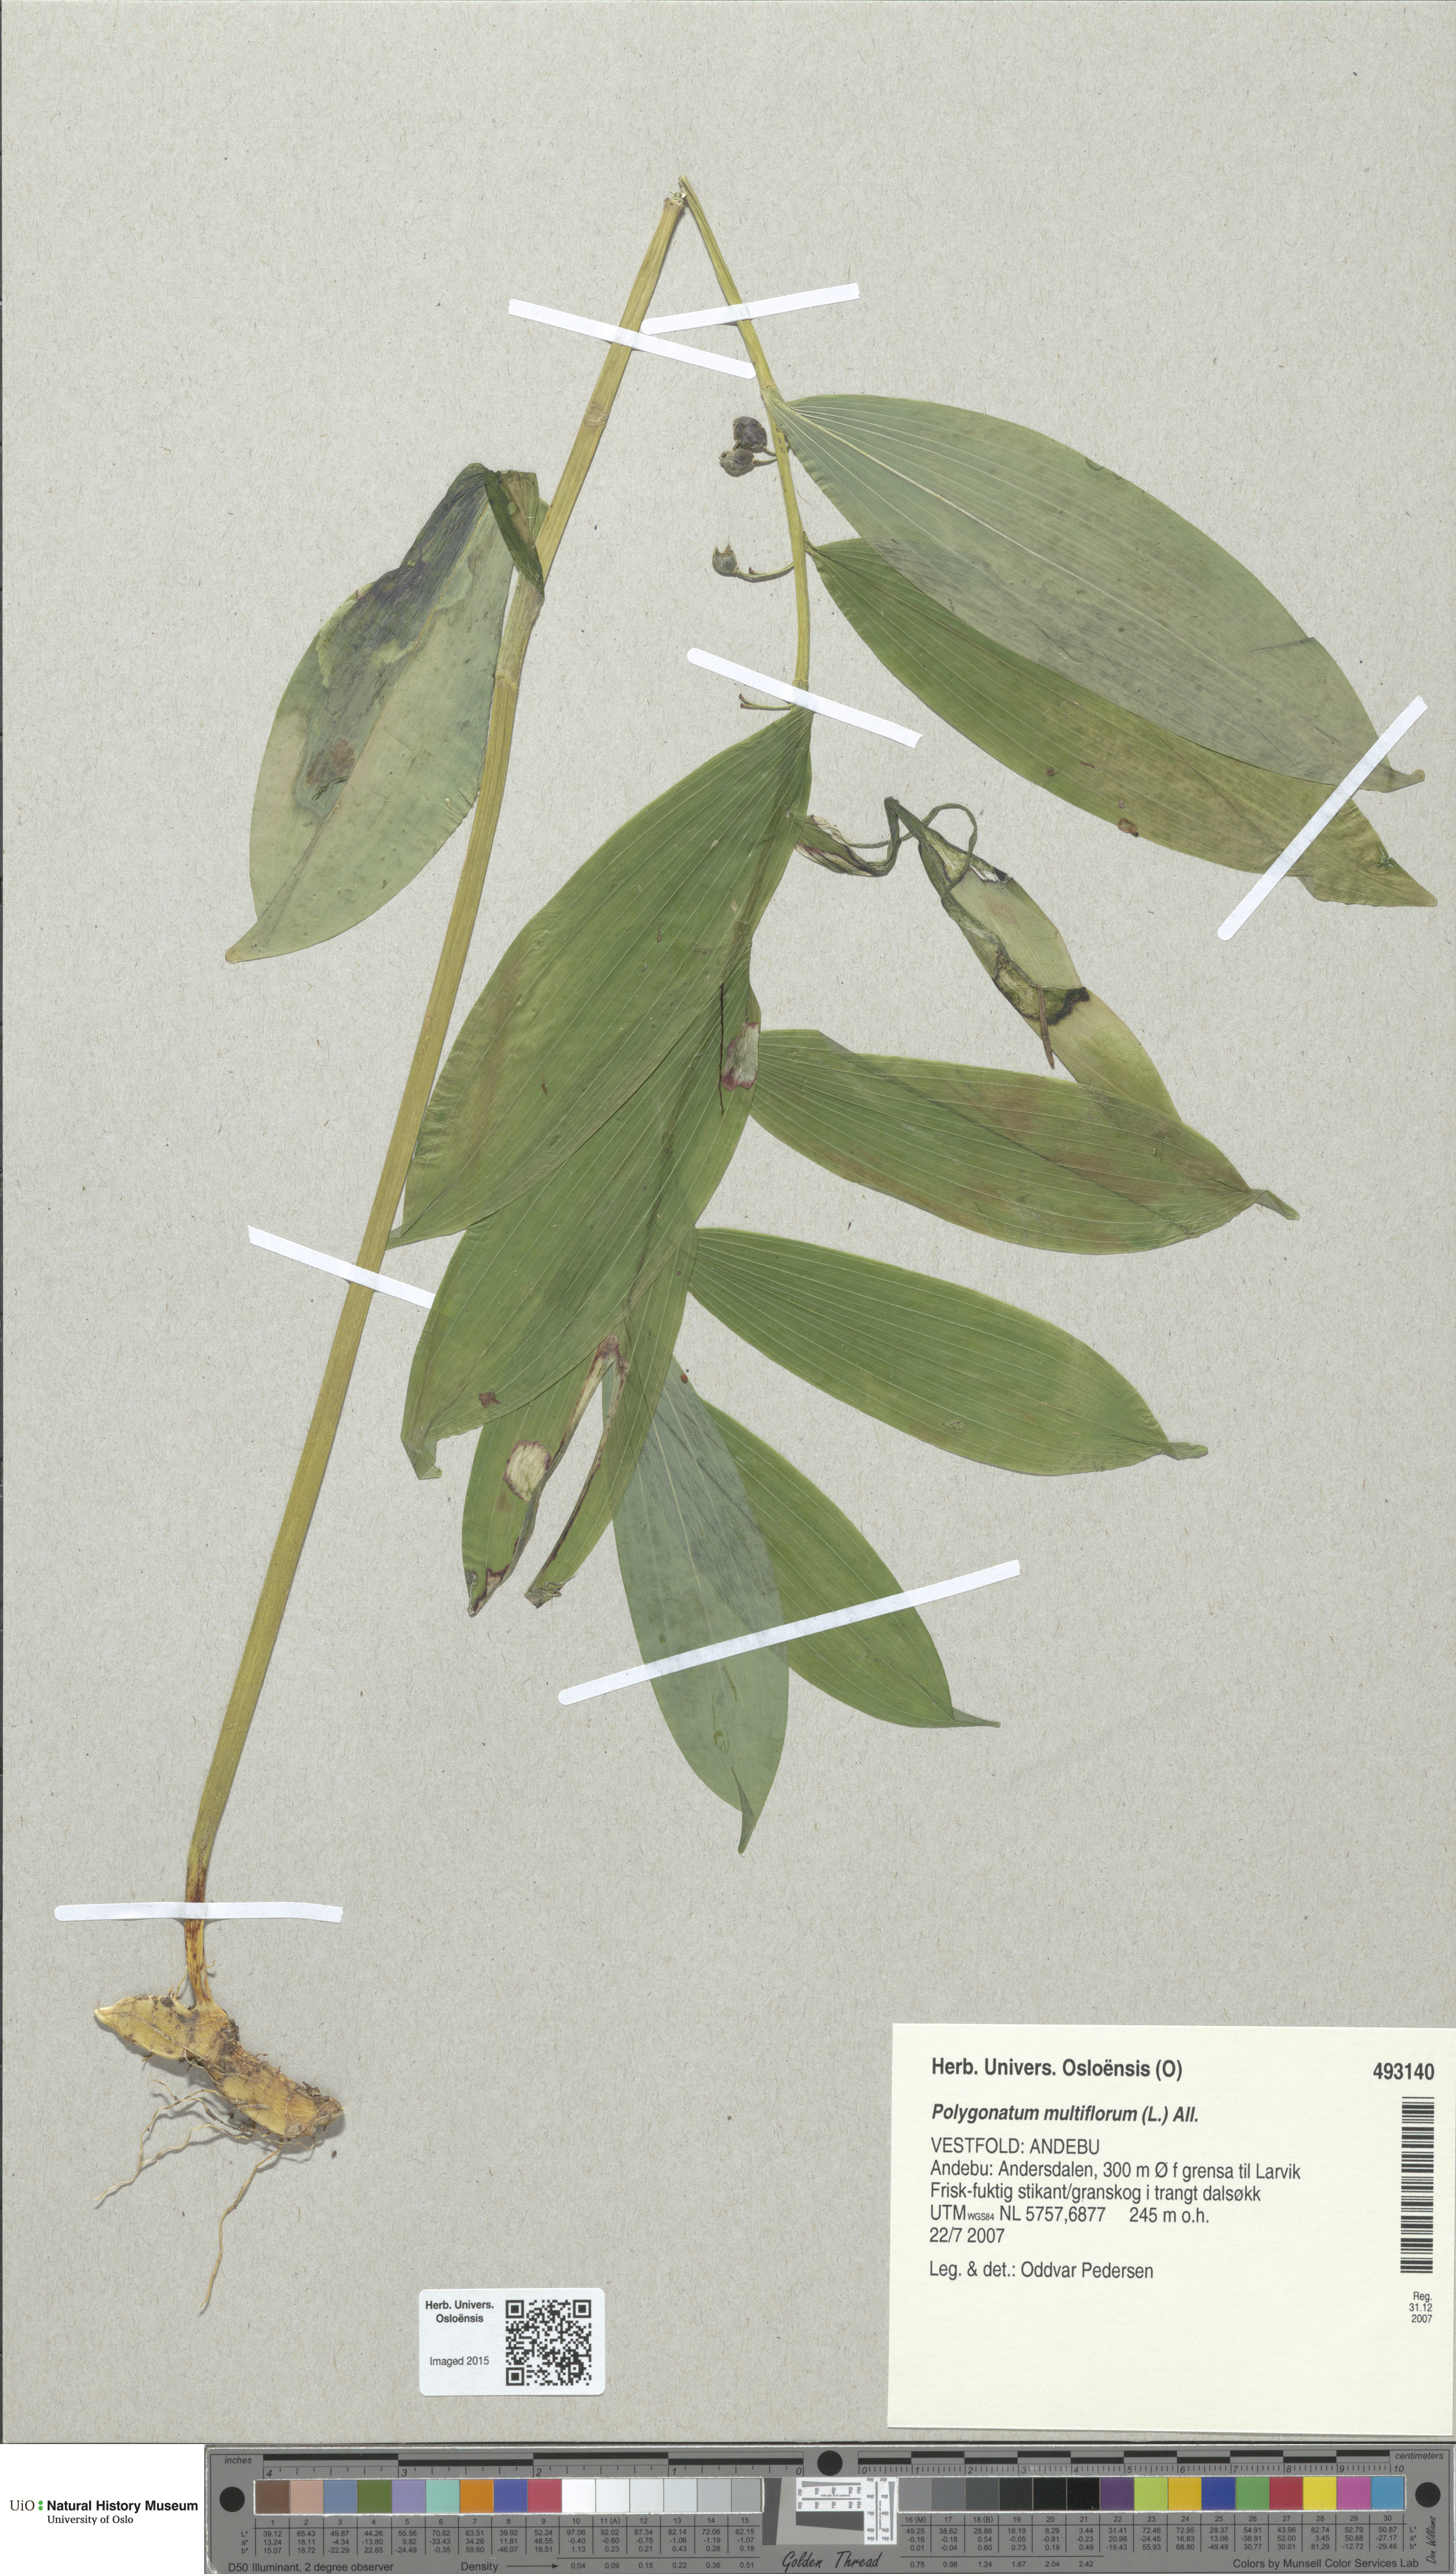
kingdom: Plantae
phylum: Tracheophyta
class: Liliopsida
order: Asparagales
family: Asparagaceae
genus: Polygonatum
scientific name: Polygonatum multiflorum
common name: Solomon's-seal
